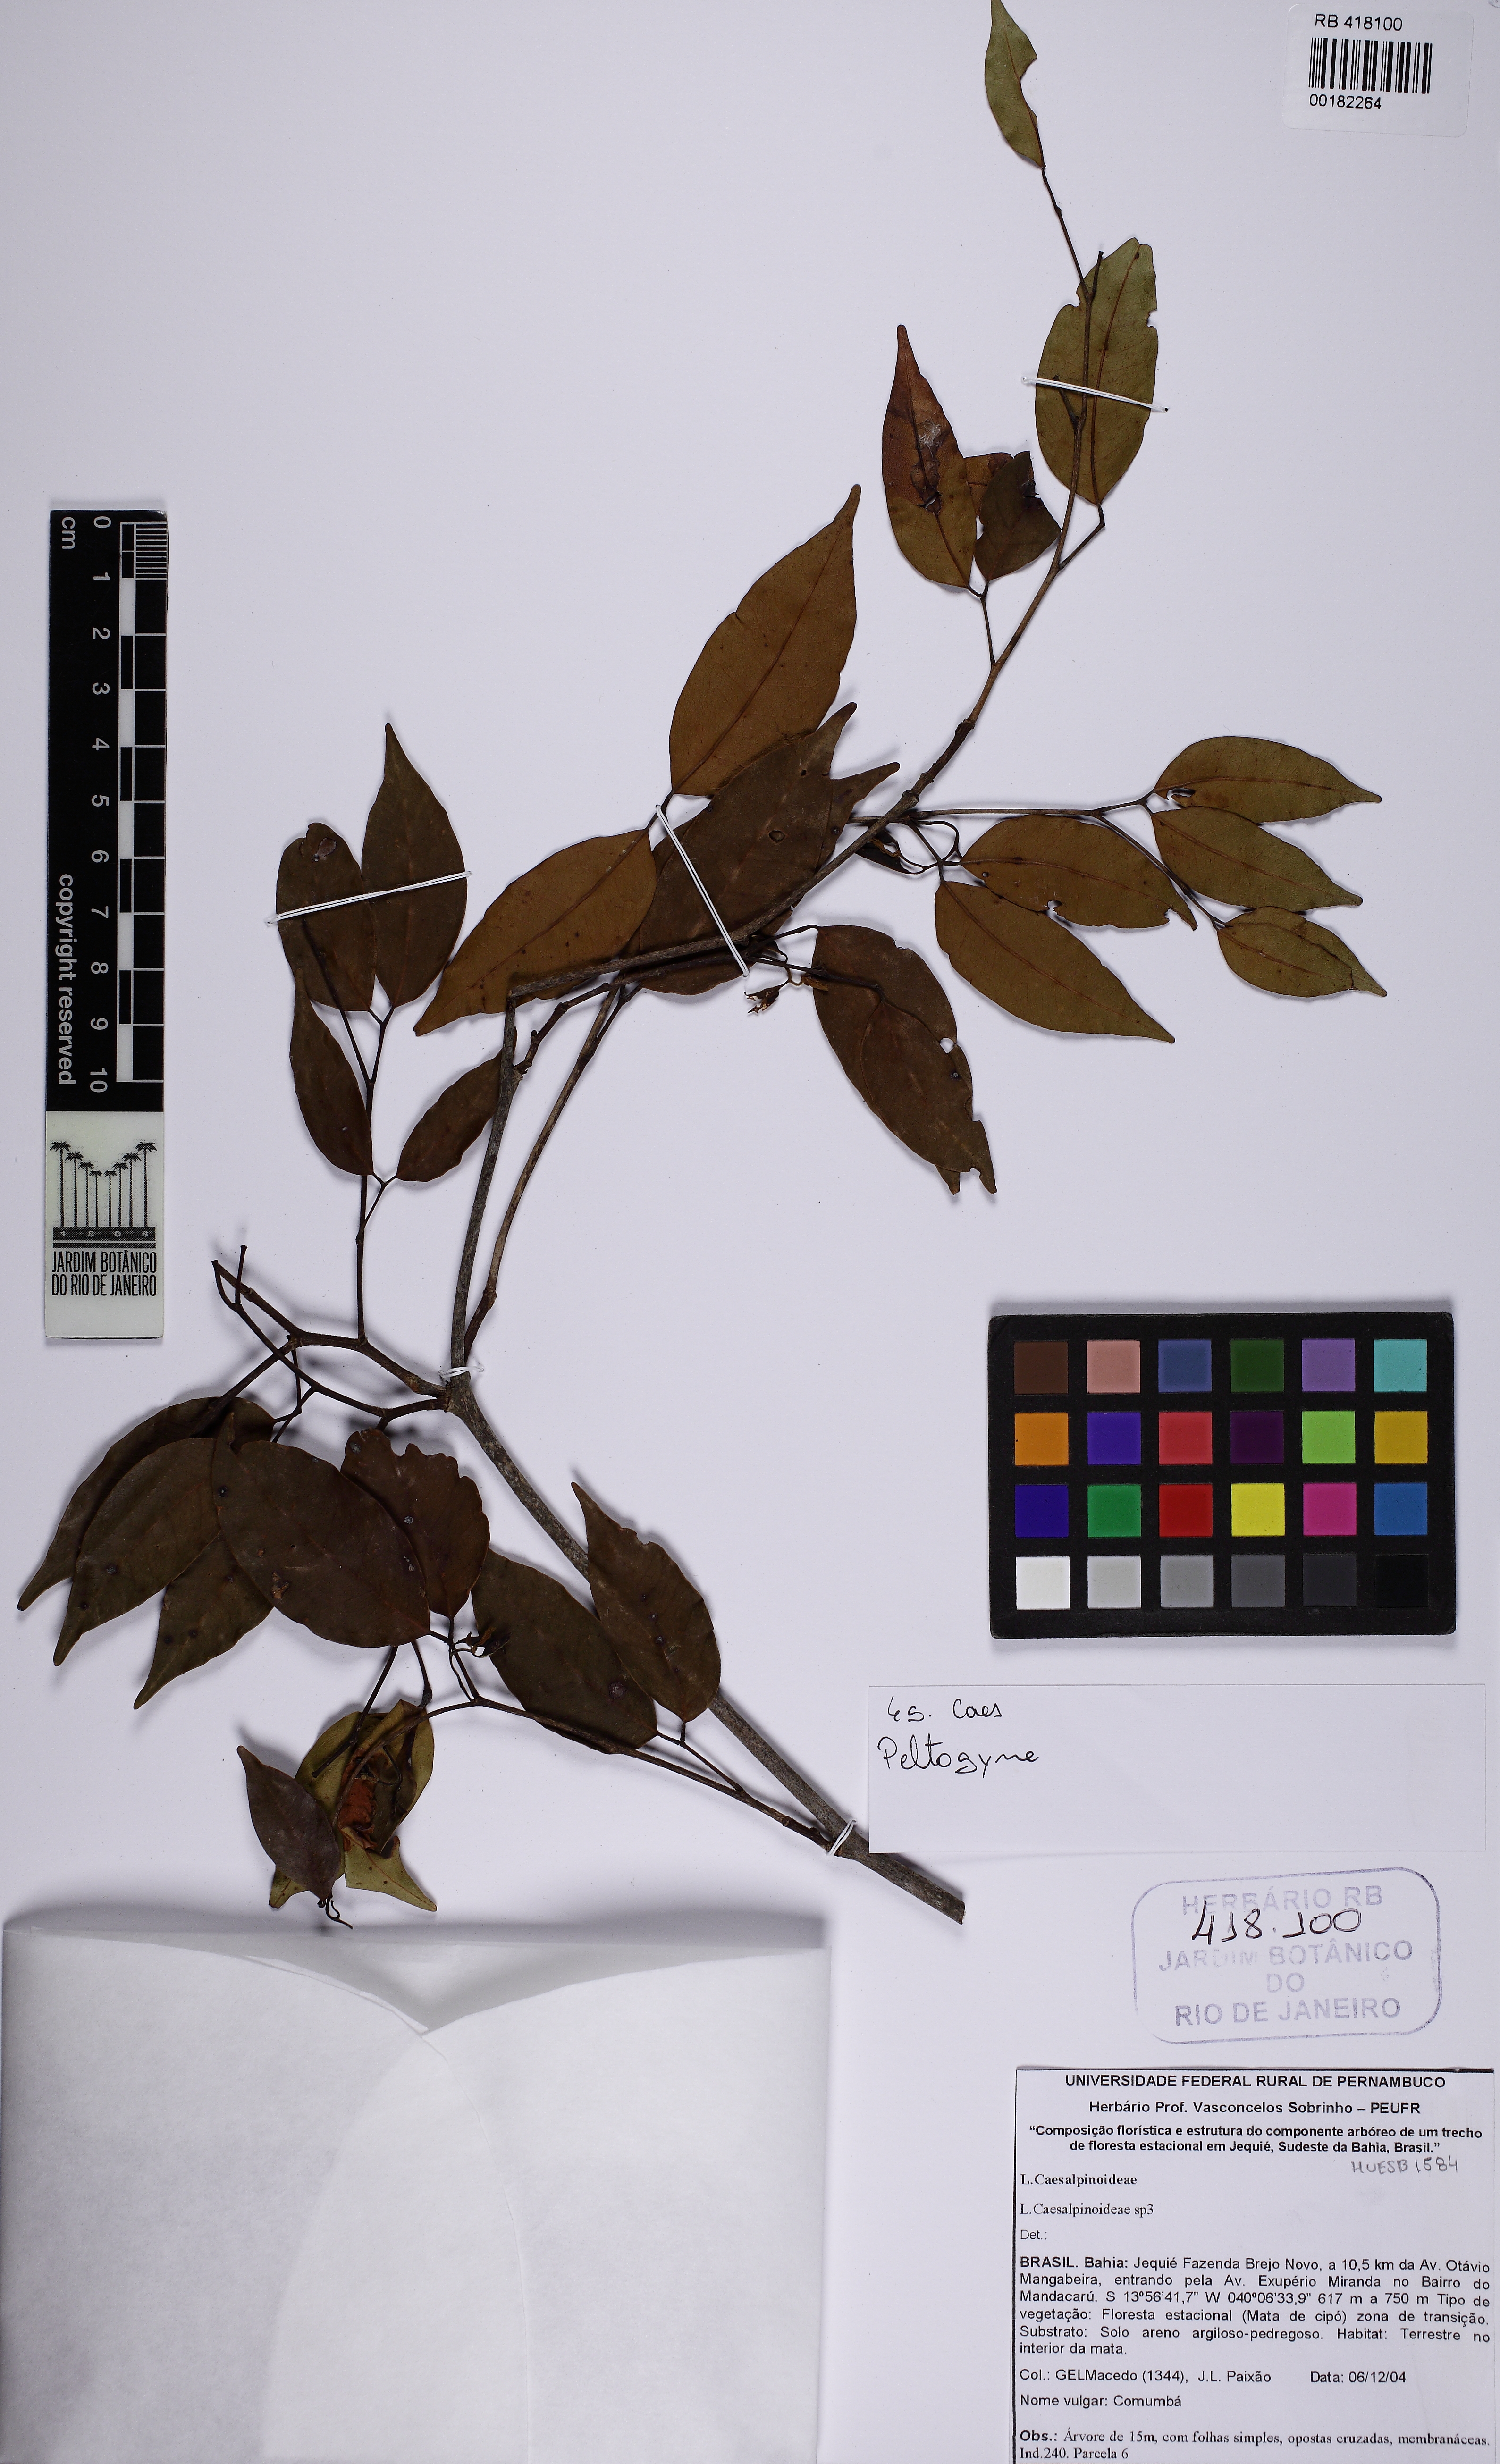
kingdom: Plantae
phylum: Tracheophyta
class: Magnoliopsida
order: Fabales
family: Fabaceae
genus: Peltogyne
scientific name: Peltogyne pauciflora
